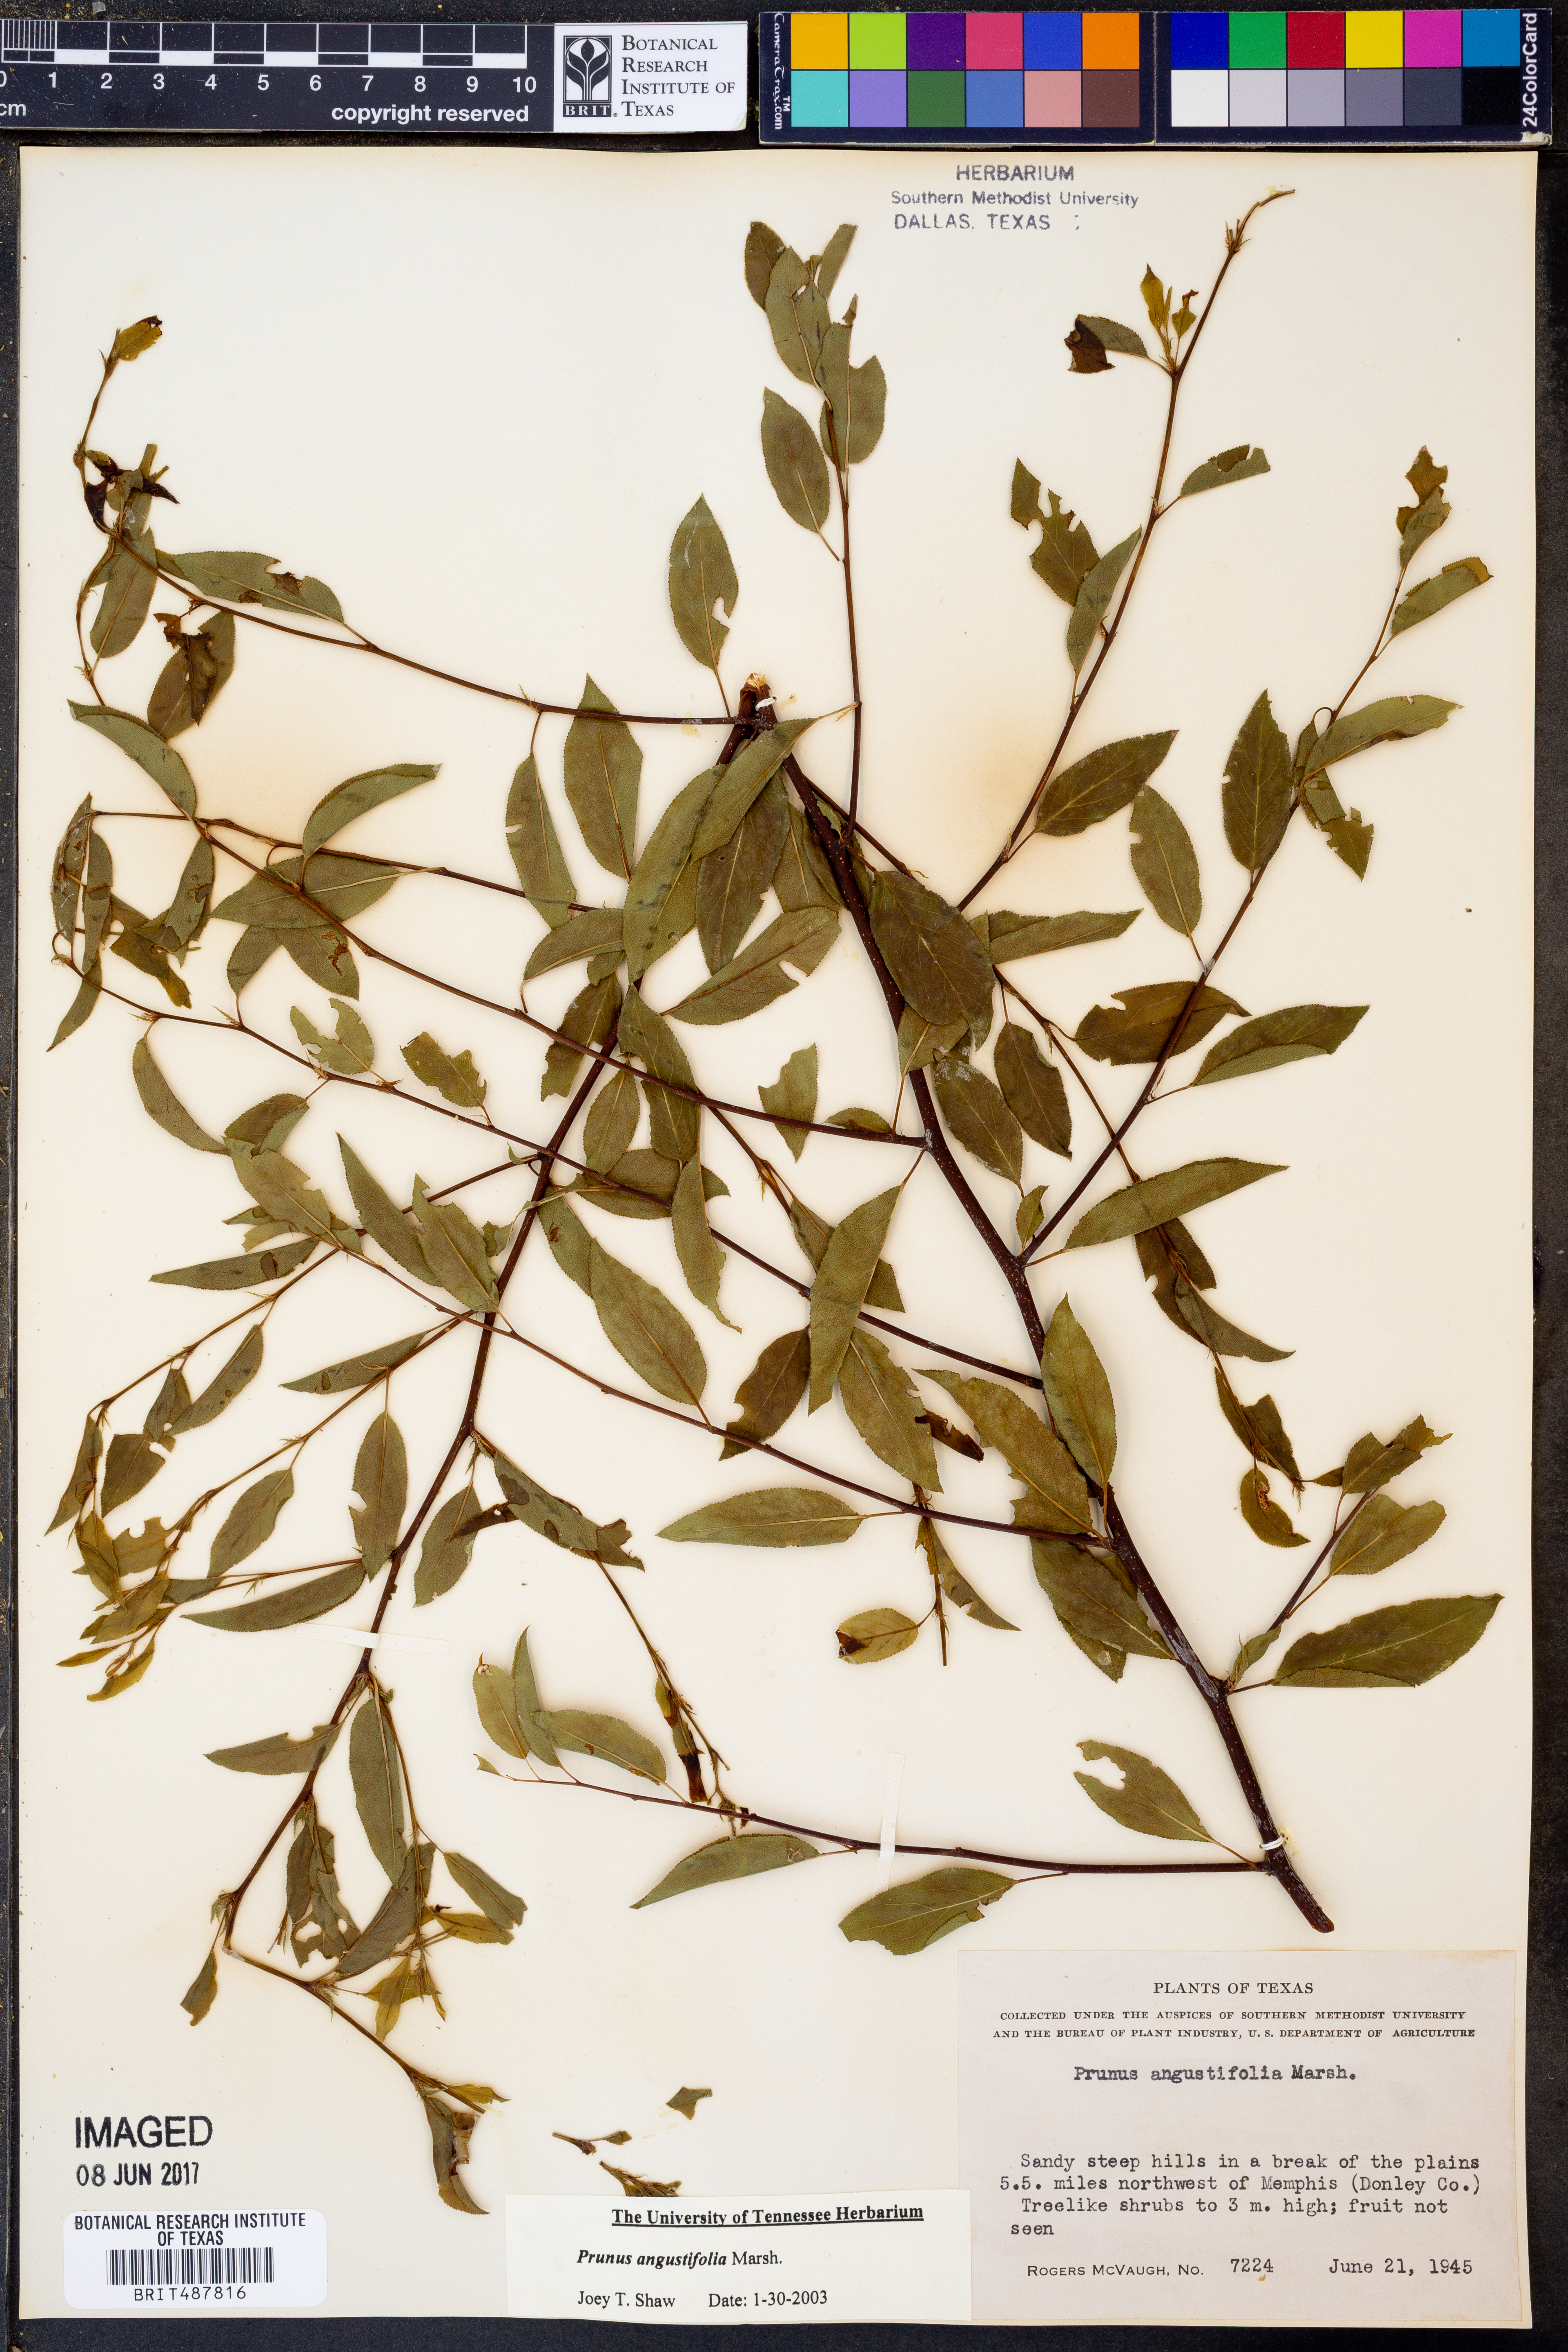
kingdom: Plantae
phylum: Tracheophyta
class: Magnoliopsida
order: Rosales
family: Rosaceae
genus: Prunus
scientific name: Prunus angustifolia
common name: Cherokee plum
